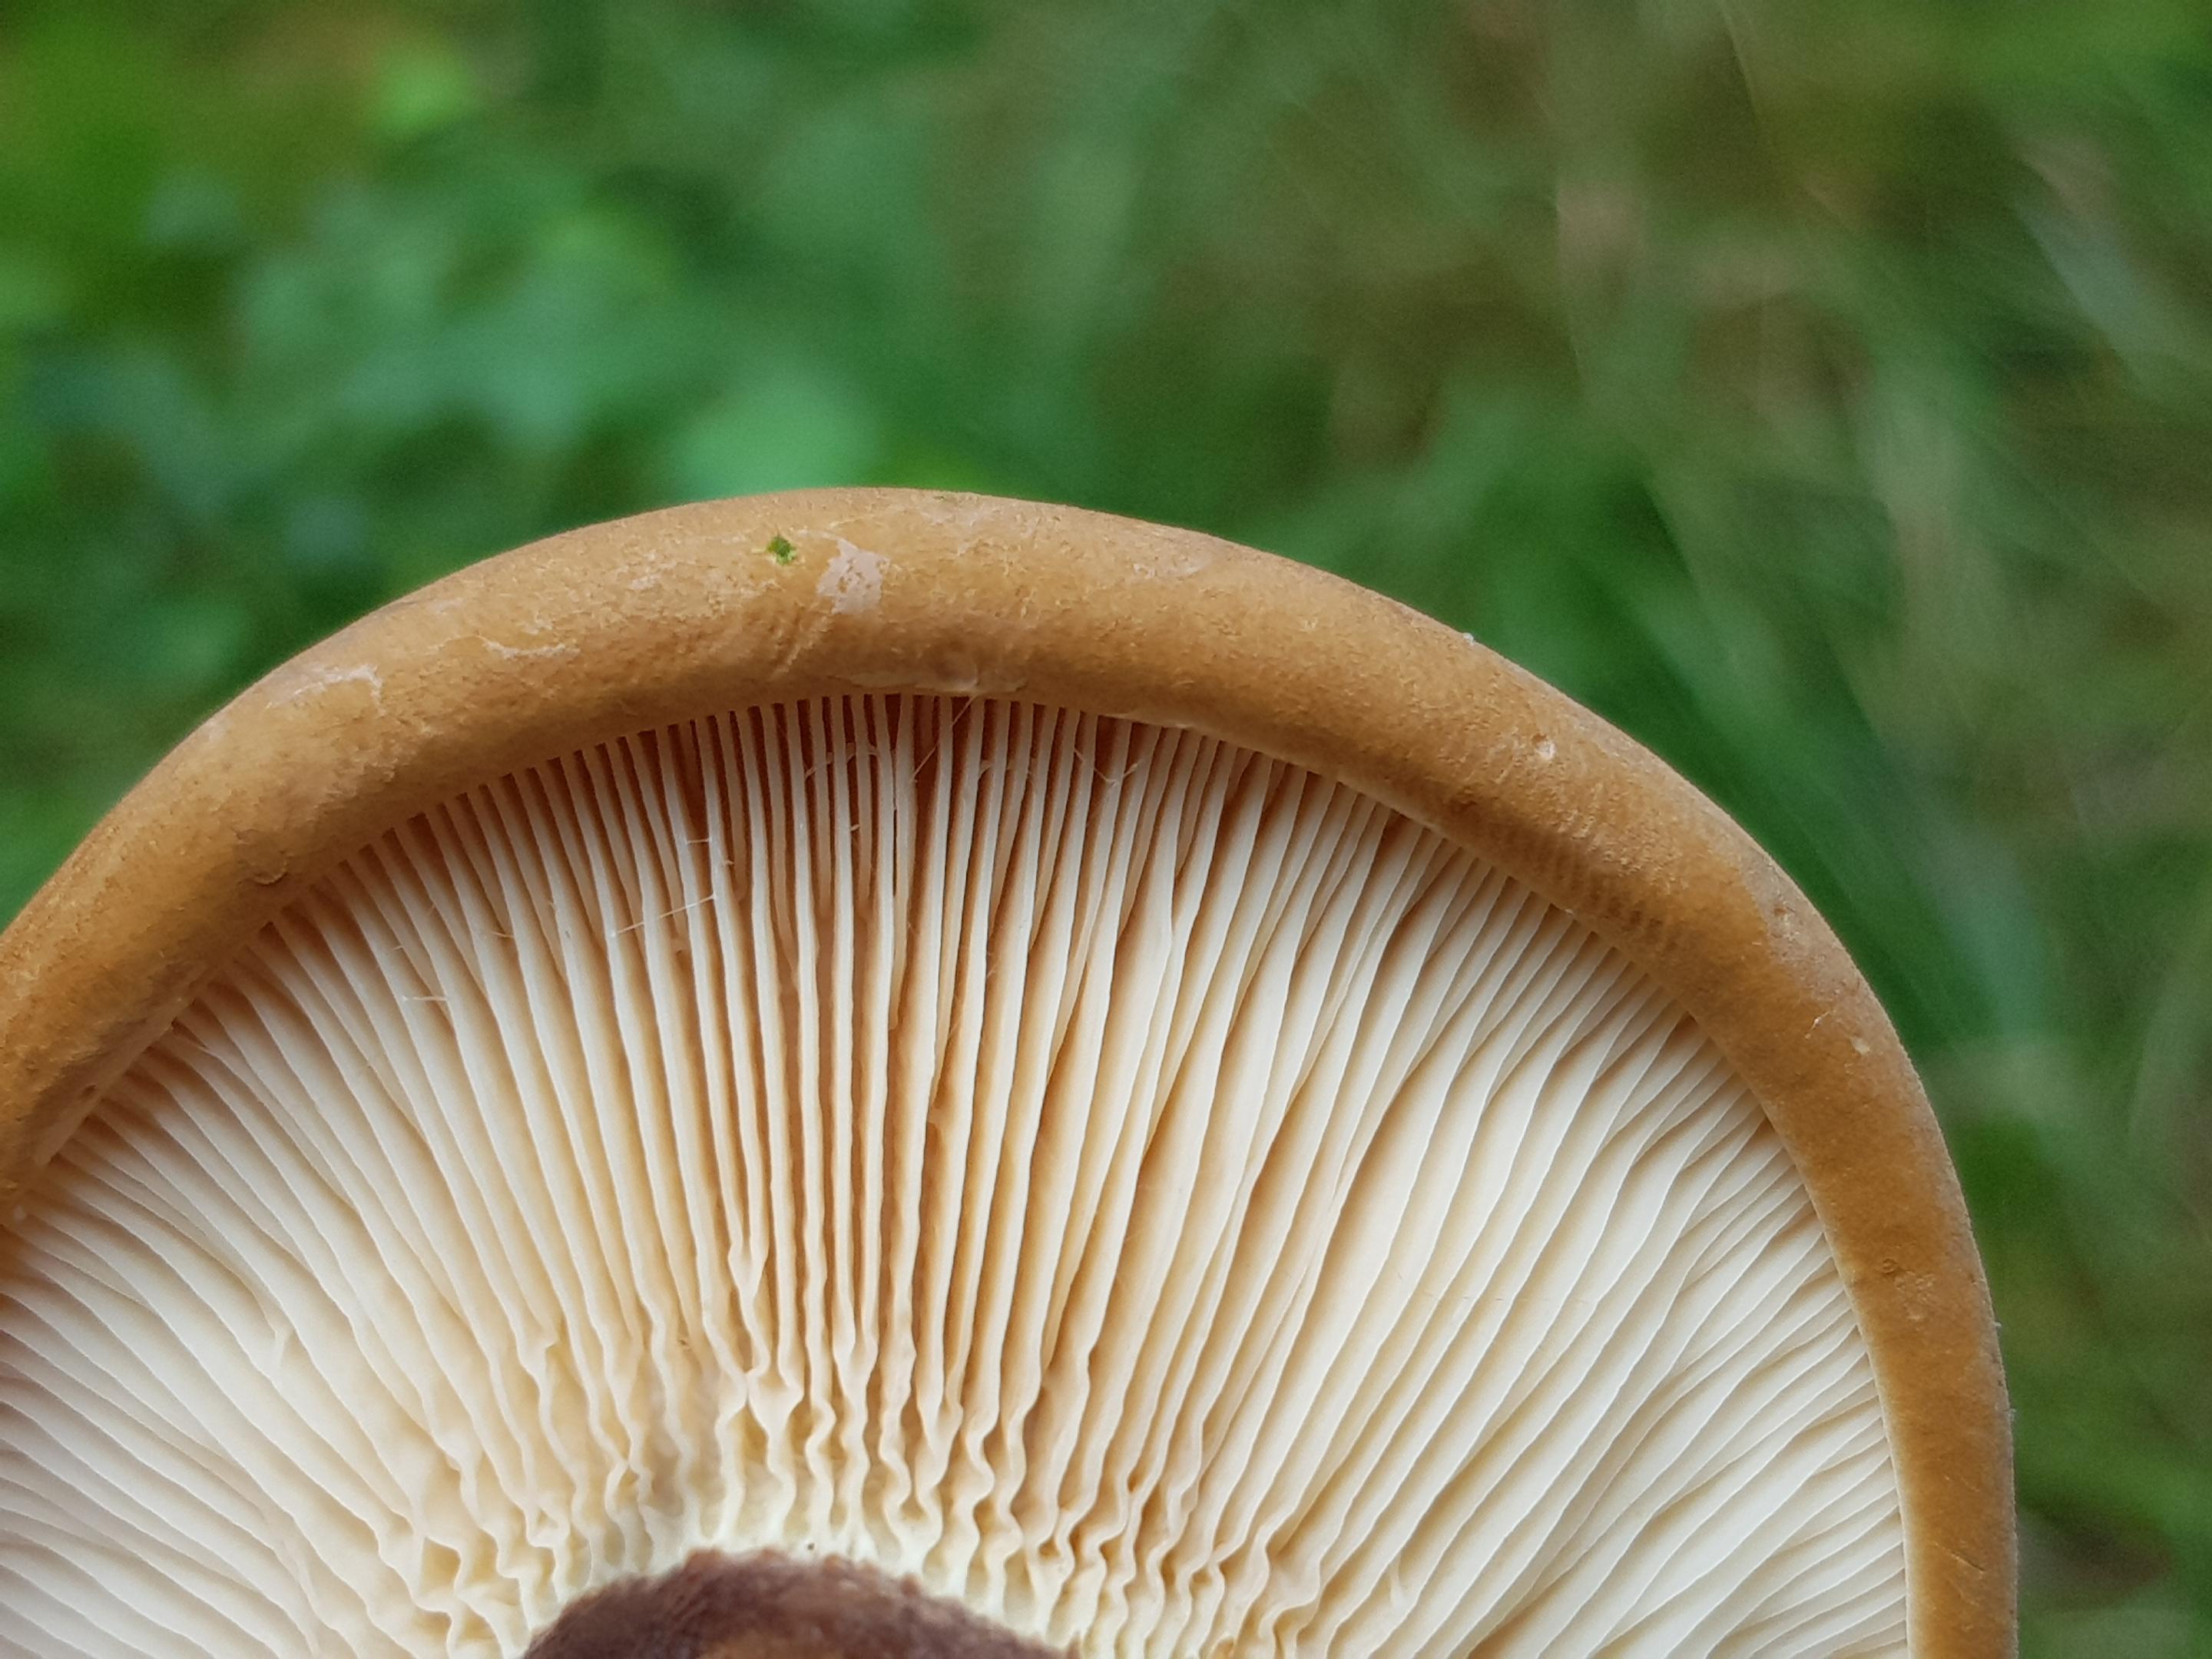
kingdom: Fungi
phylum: Basidiomycota
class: Agaricomycetes
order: Boletales
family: Tapinellaceae
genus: Tapinella
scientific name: Tapinella atrotomentosa
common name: sortfiltet viftesvamp
